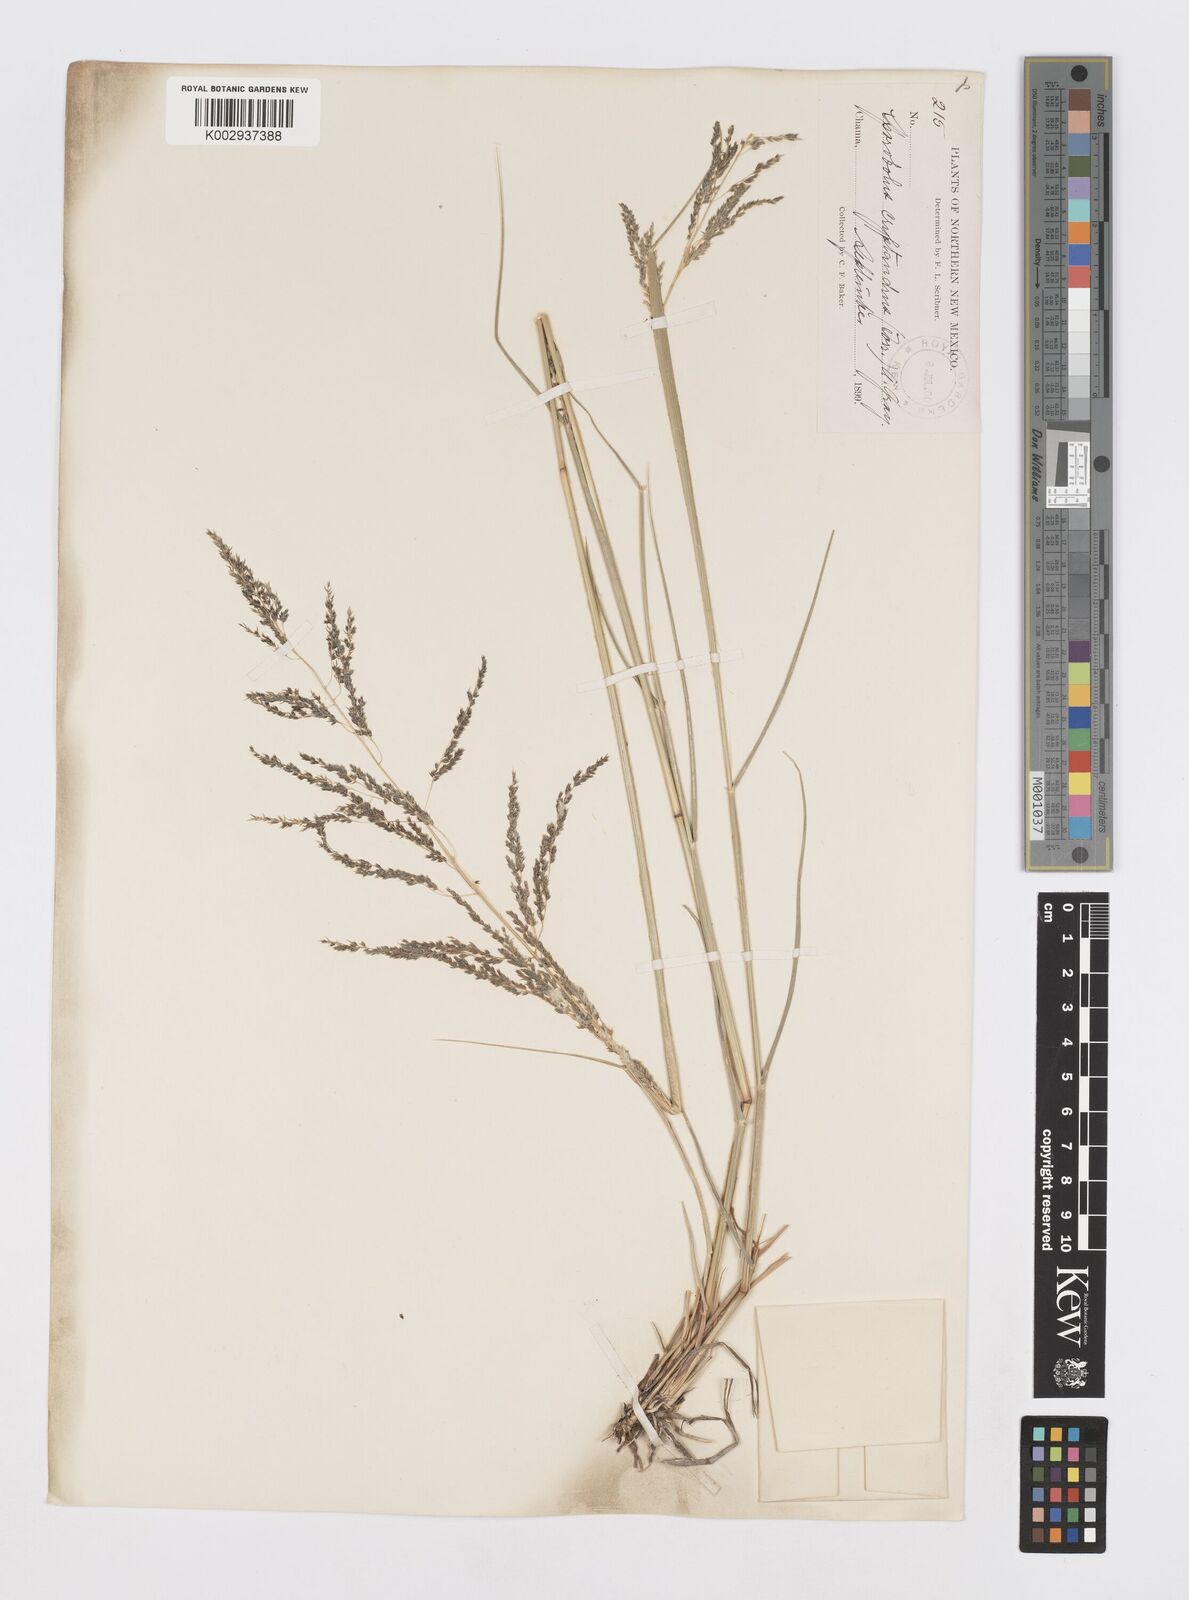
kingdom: Plantae
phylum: Tracheophyta
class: Liliopsida
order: Poales
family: Poaceae
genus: Sporobolus
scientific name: Sporobolus cryptandrus
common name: Sand dropseed
